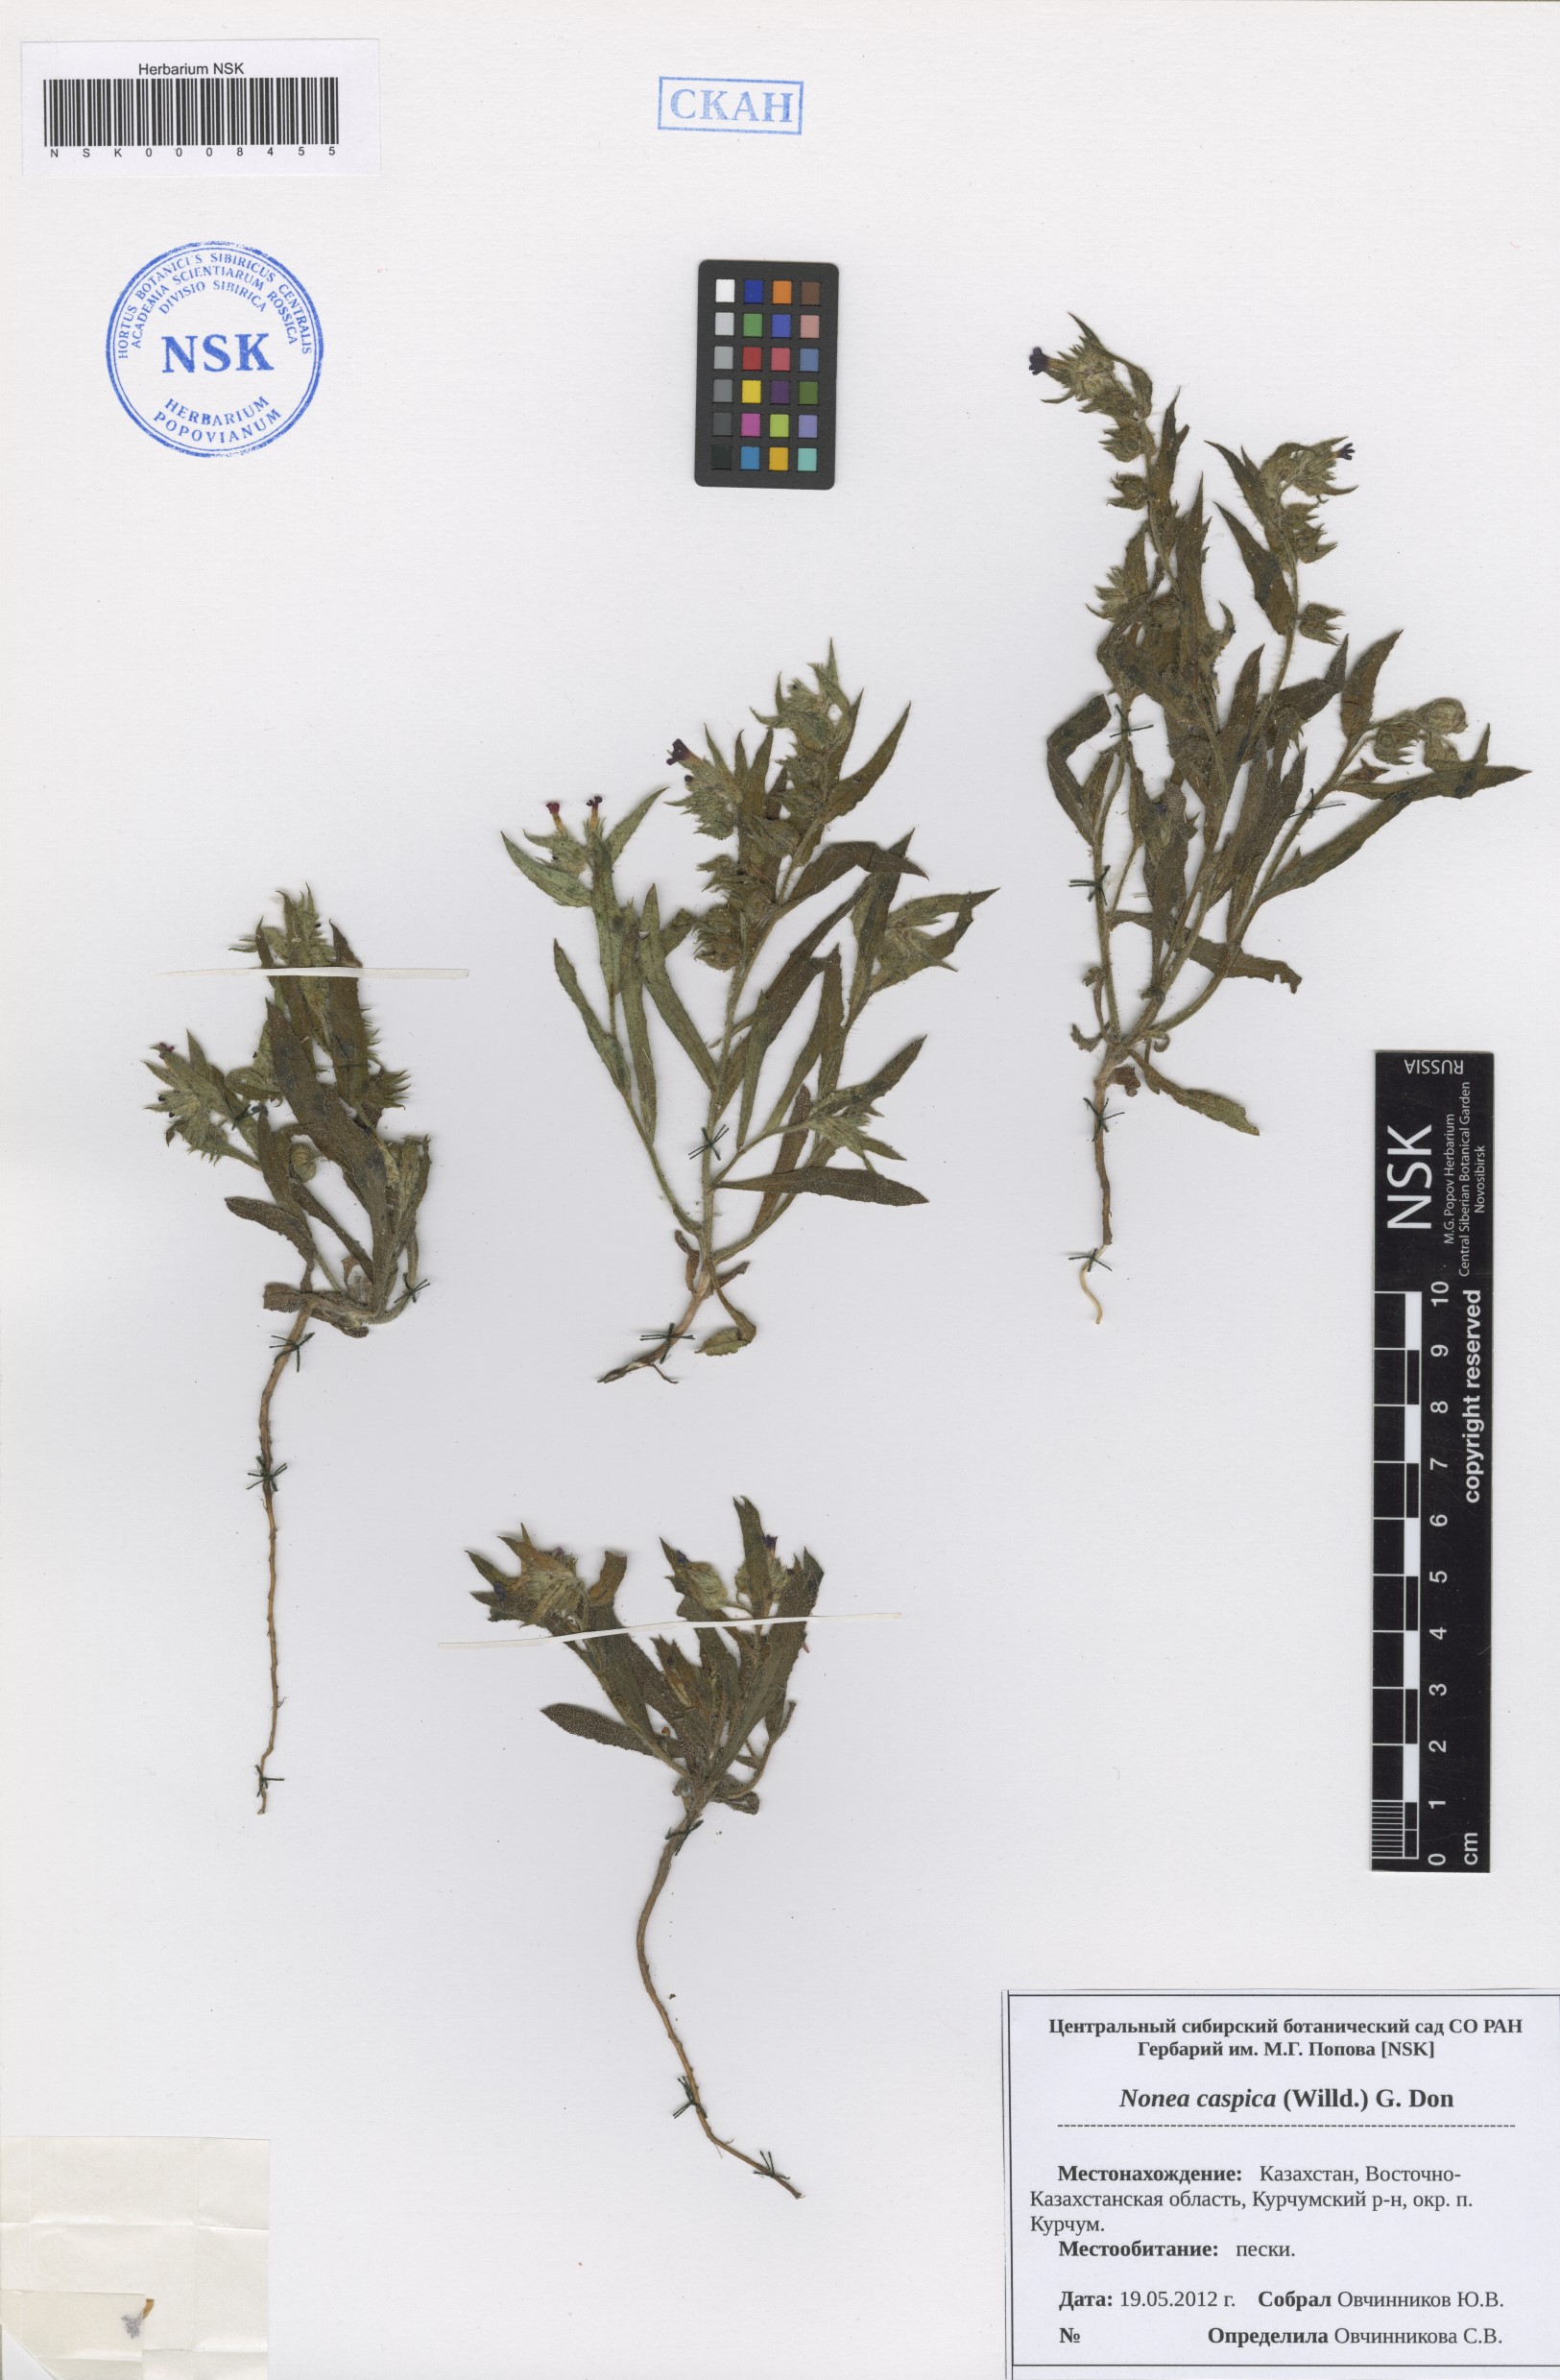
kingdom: Plantae
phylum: Tracheophyta
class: Magnoliopsida
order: Boraginales
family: Boraginaceae
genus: Nonea
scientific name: Nonea caspica
